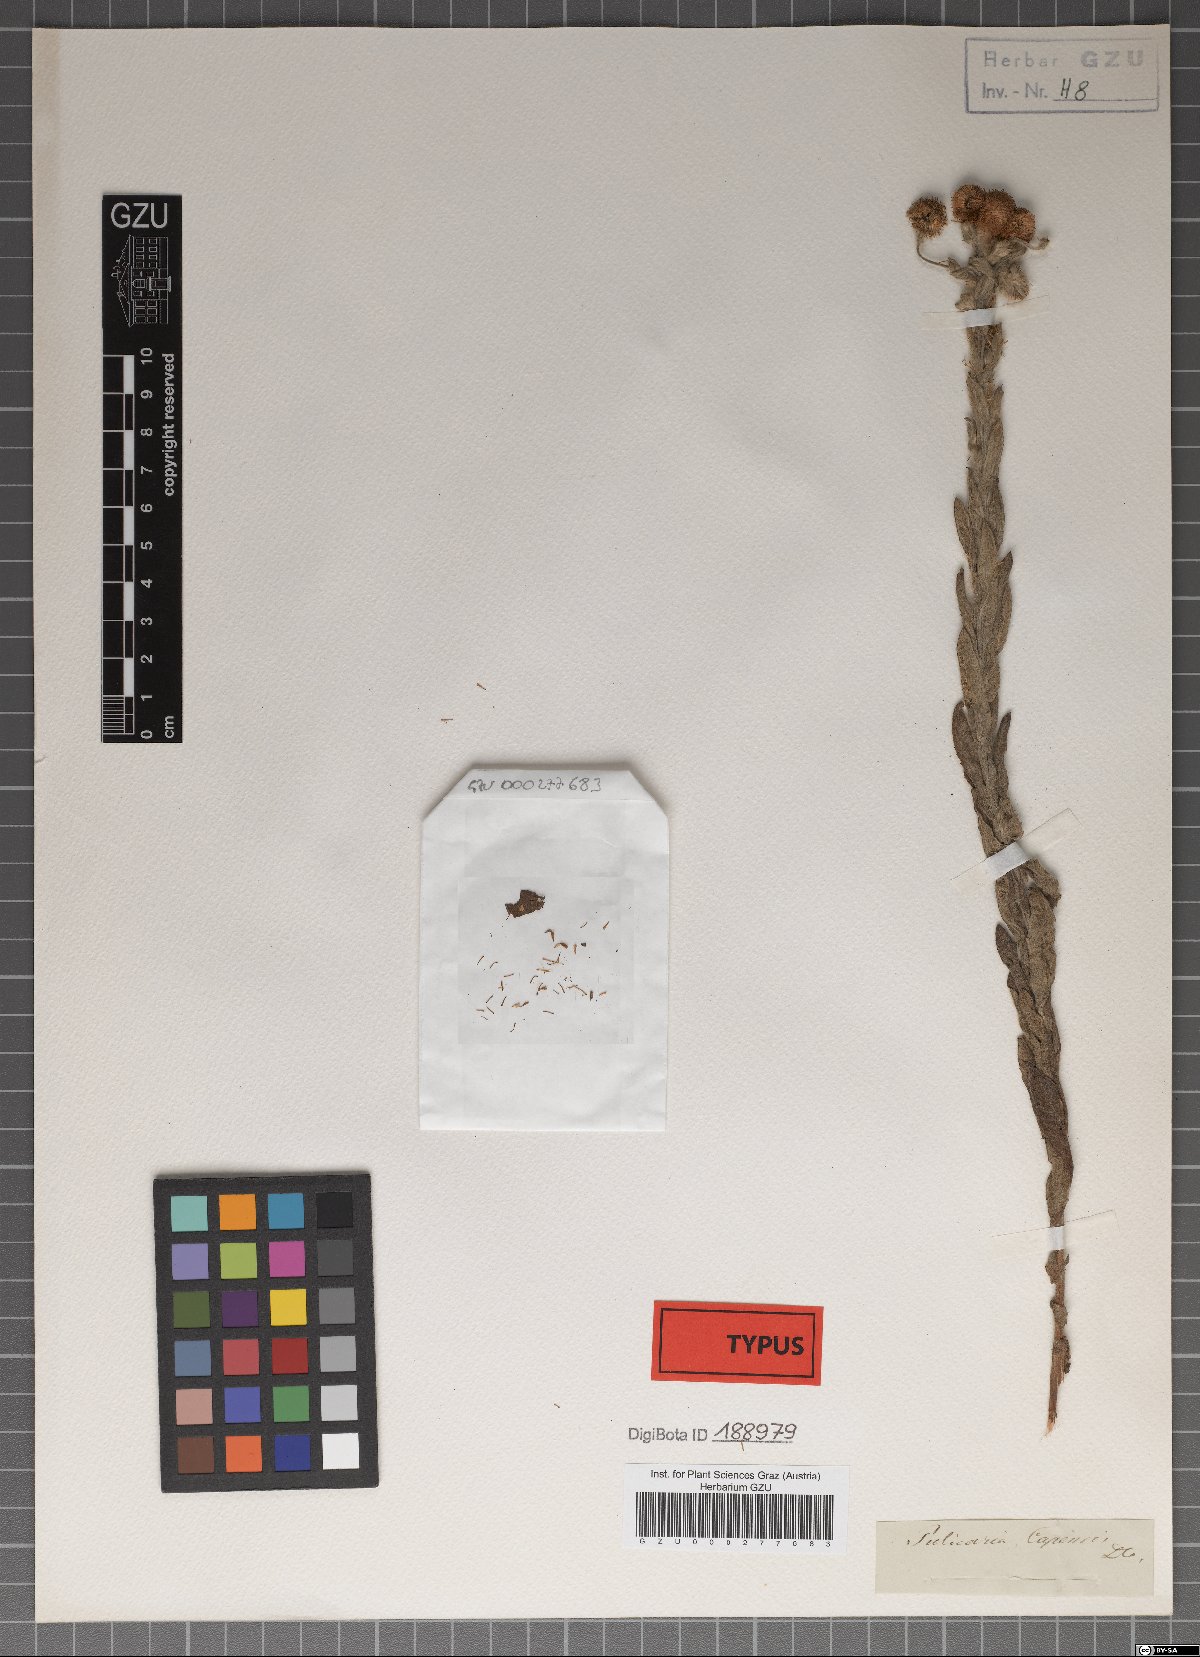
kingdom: Plantae
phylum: Tracheophyta
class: Magnoliopsida
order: Asterales
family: Asteraceae
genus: Pulicaria
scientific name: Pulicaria scabra
